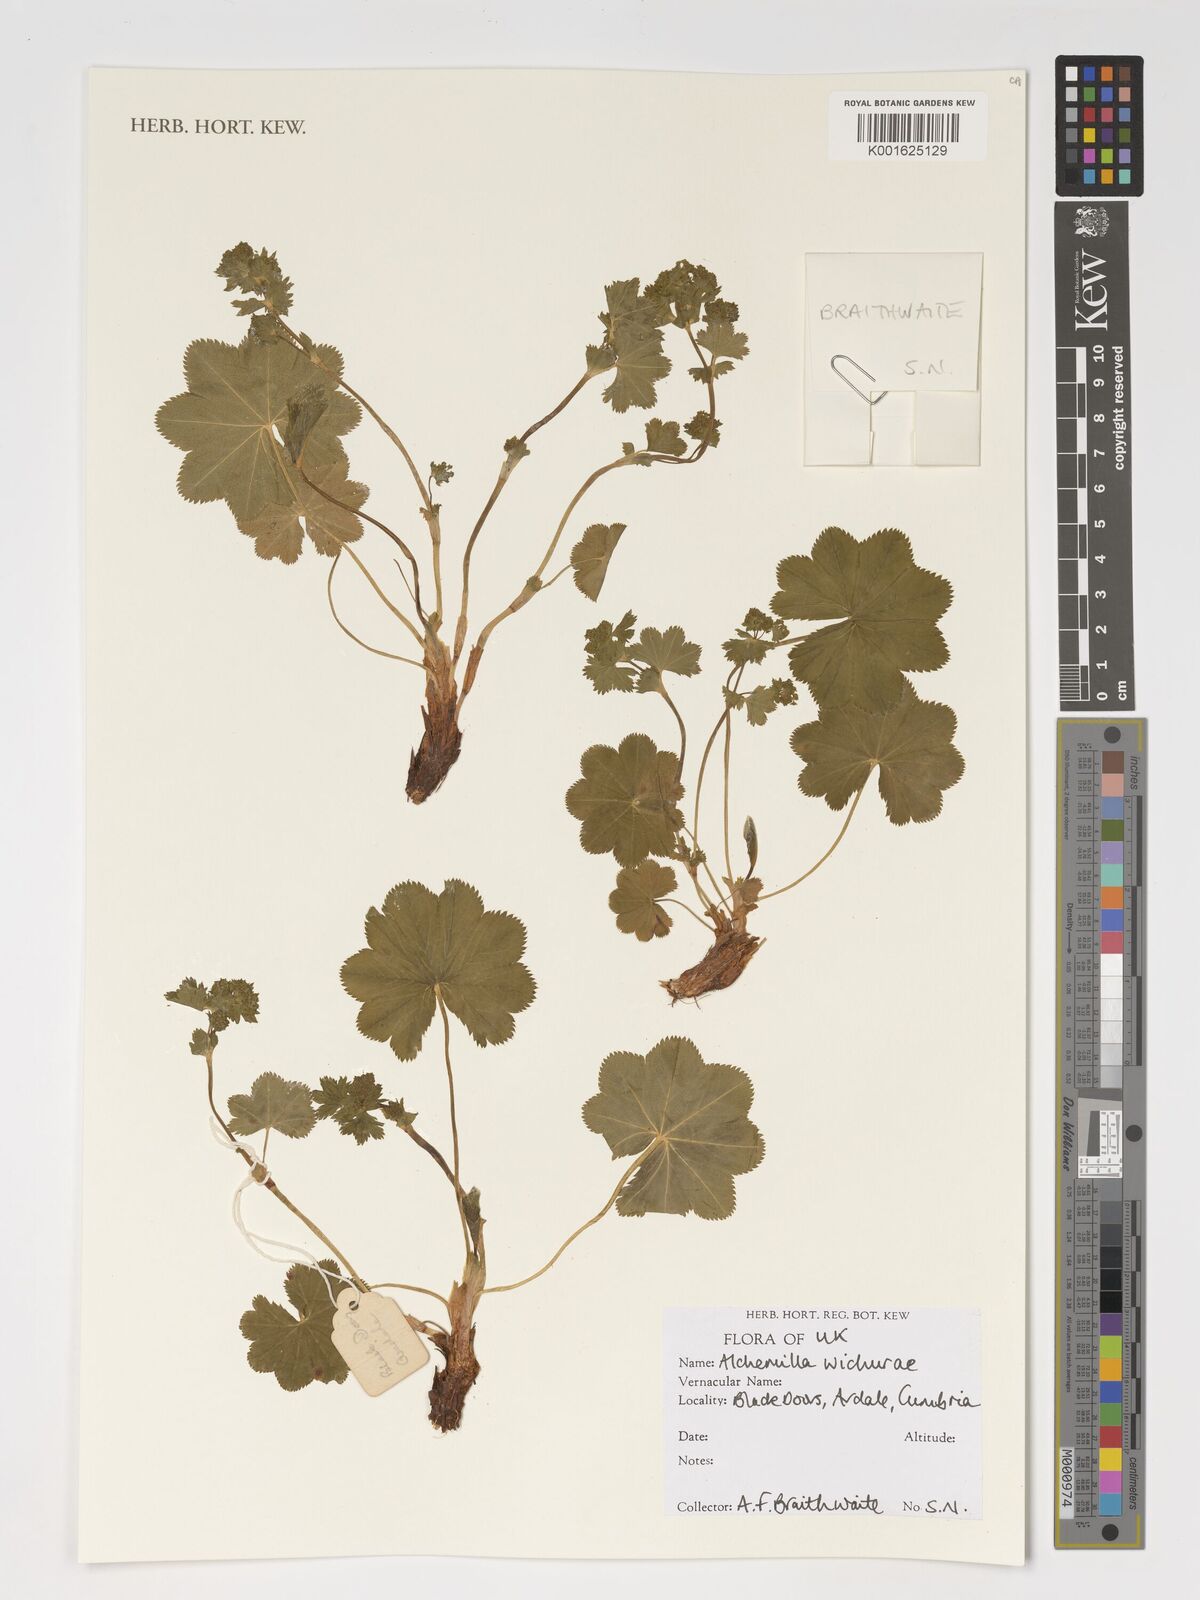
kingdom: Plantae
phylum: Tracheophyta
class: Magnoliopsida
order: Rosales
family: Rosaceae
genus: Alchemilla
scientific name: Alchemilla wichurae
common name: Rock lady's mantle
